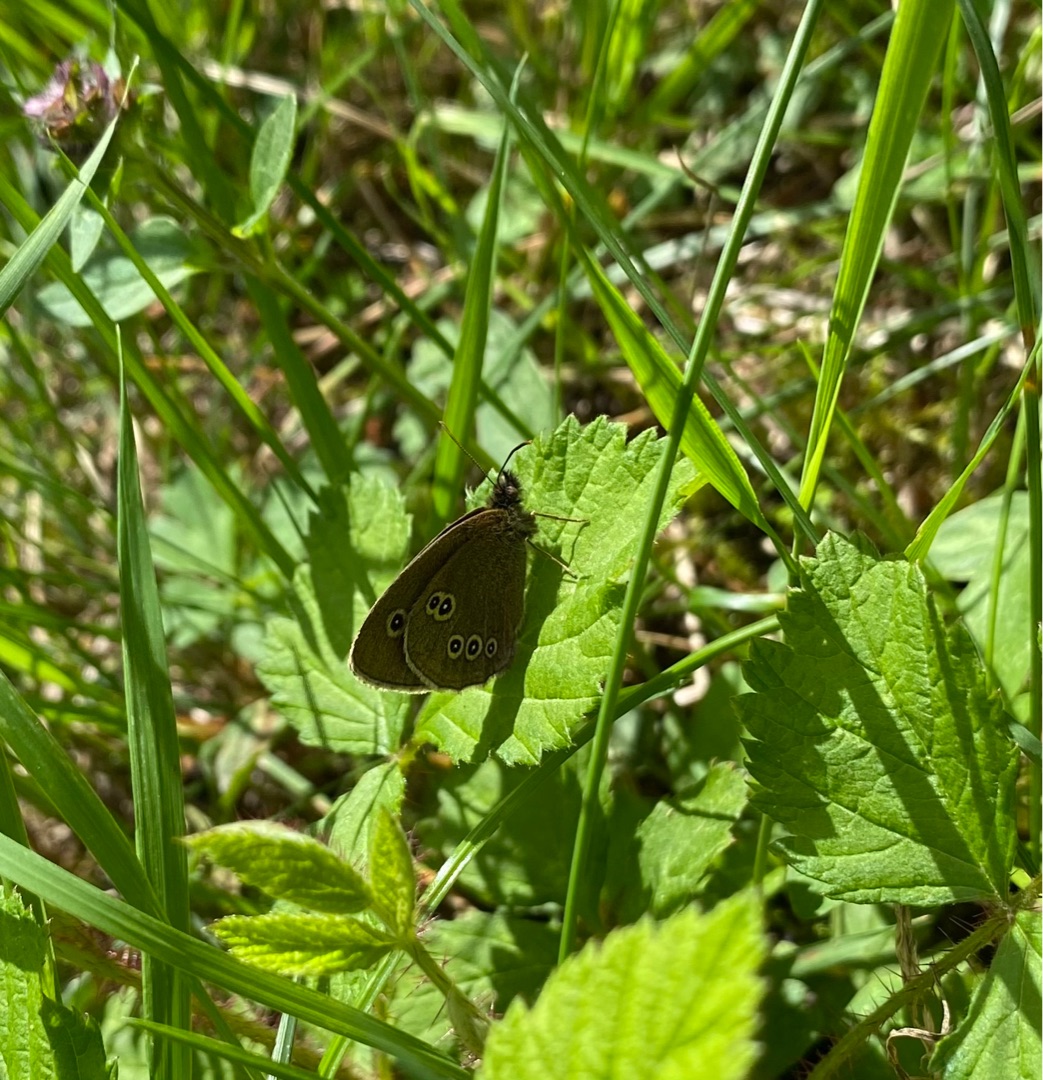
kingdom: Animalia
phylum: Arthropoda
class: Insecta
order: Lepidoptera
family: Nymphalidae
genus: Aphantopus
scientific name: Aphantopus hyperantus
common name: Engrandøje
